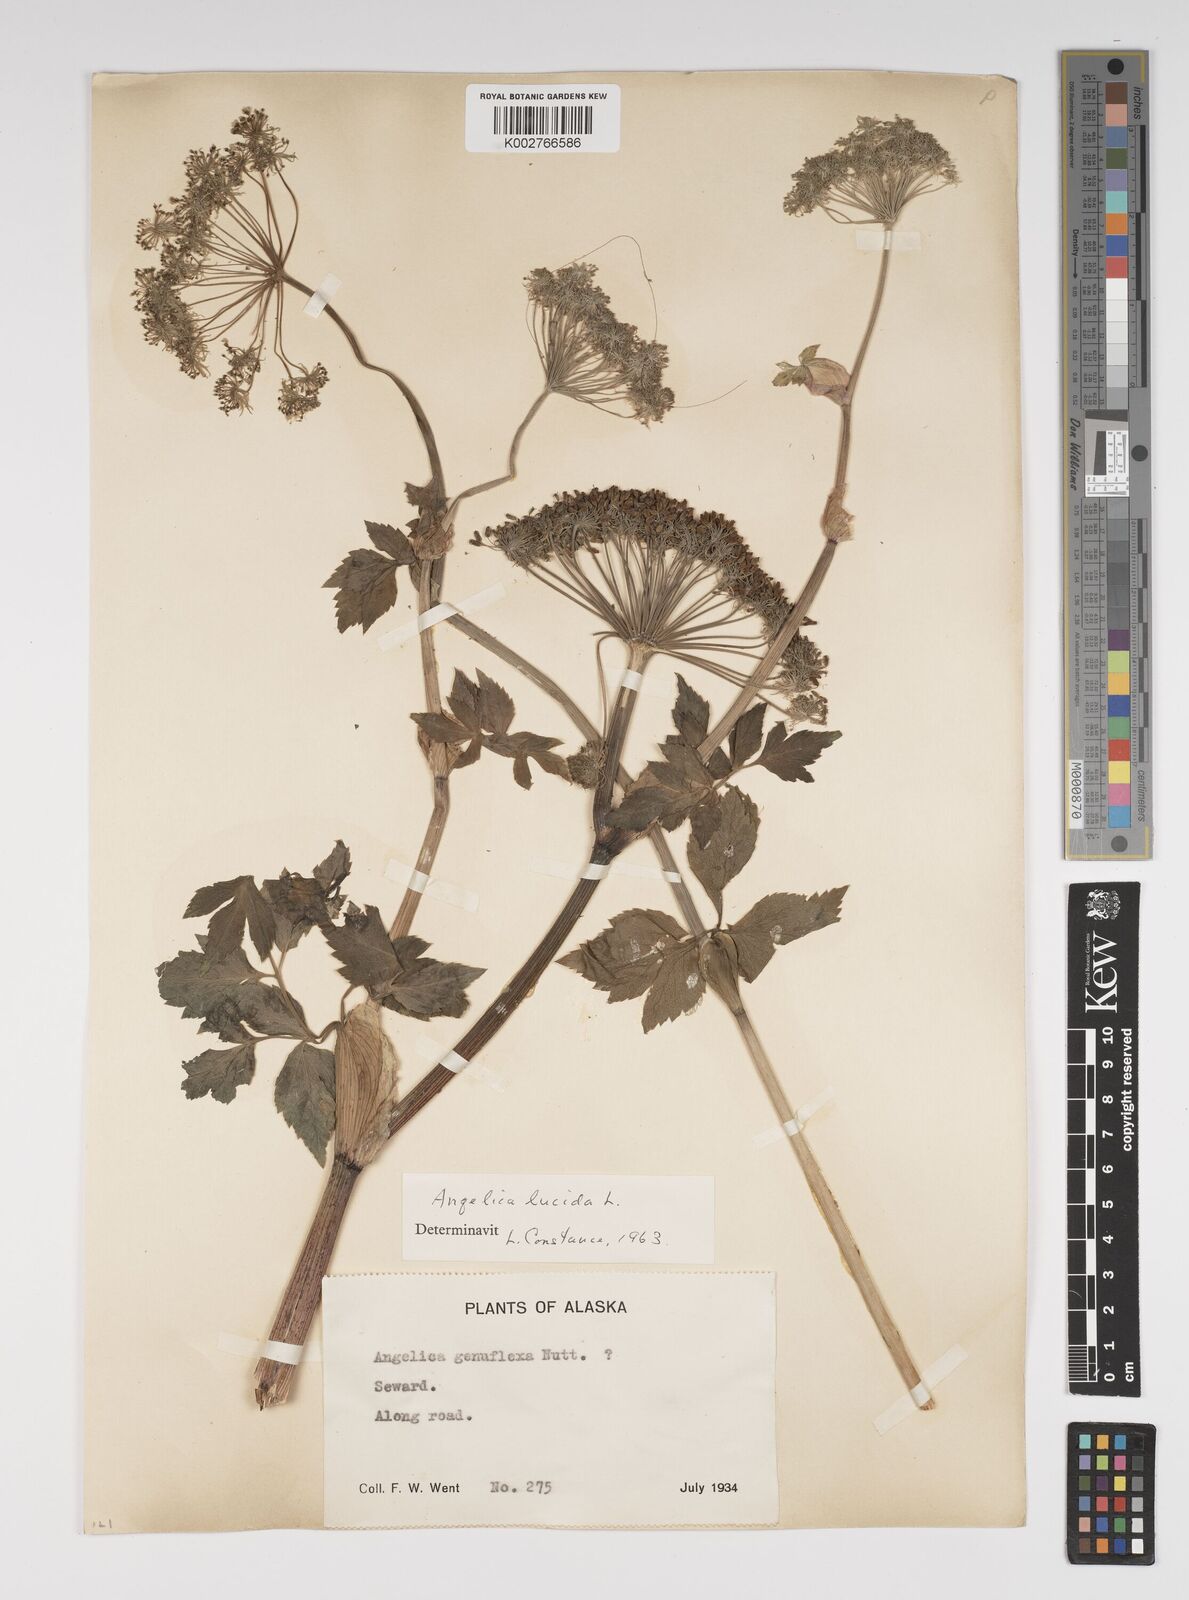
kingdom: Plantae
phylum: Tracheophyta
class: Magnoliopsida
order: Apiales
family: Apiaceae
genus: Angelica
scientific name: Angelica lucida
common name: Seabeach angelica
